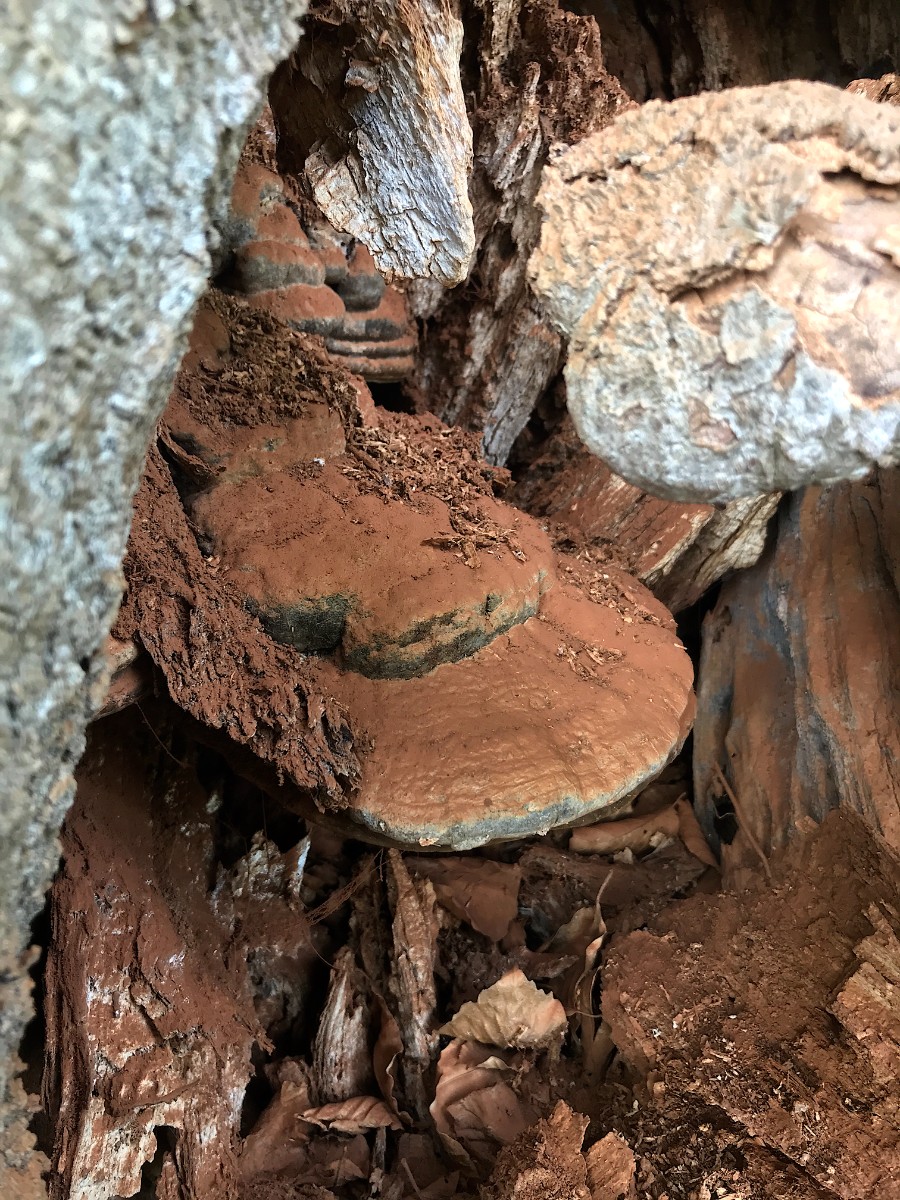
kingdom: Fungi
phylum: Basidiomycota
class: Agaricomycetes
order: Polyporales
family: Polyporaceae
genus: Ganoderma
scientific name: Ganoderma pfeifferi
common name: kobberrød lakporesvamp
